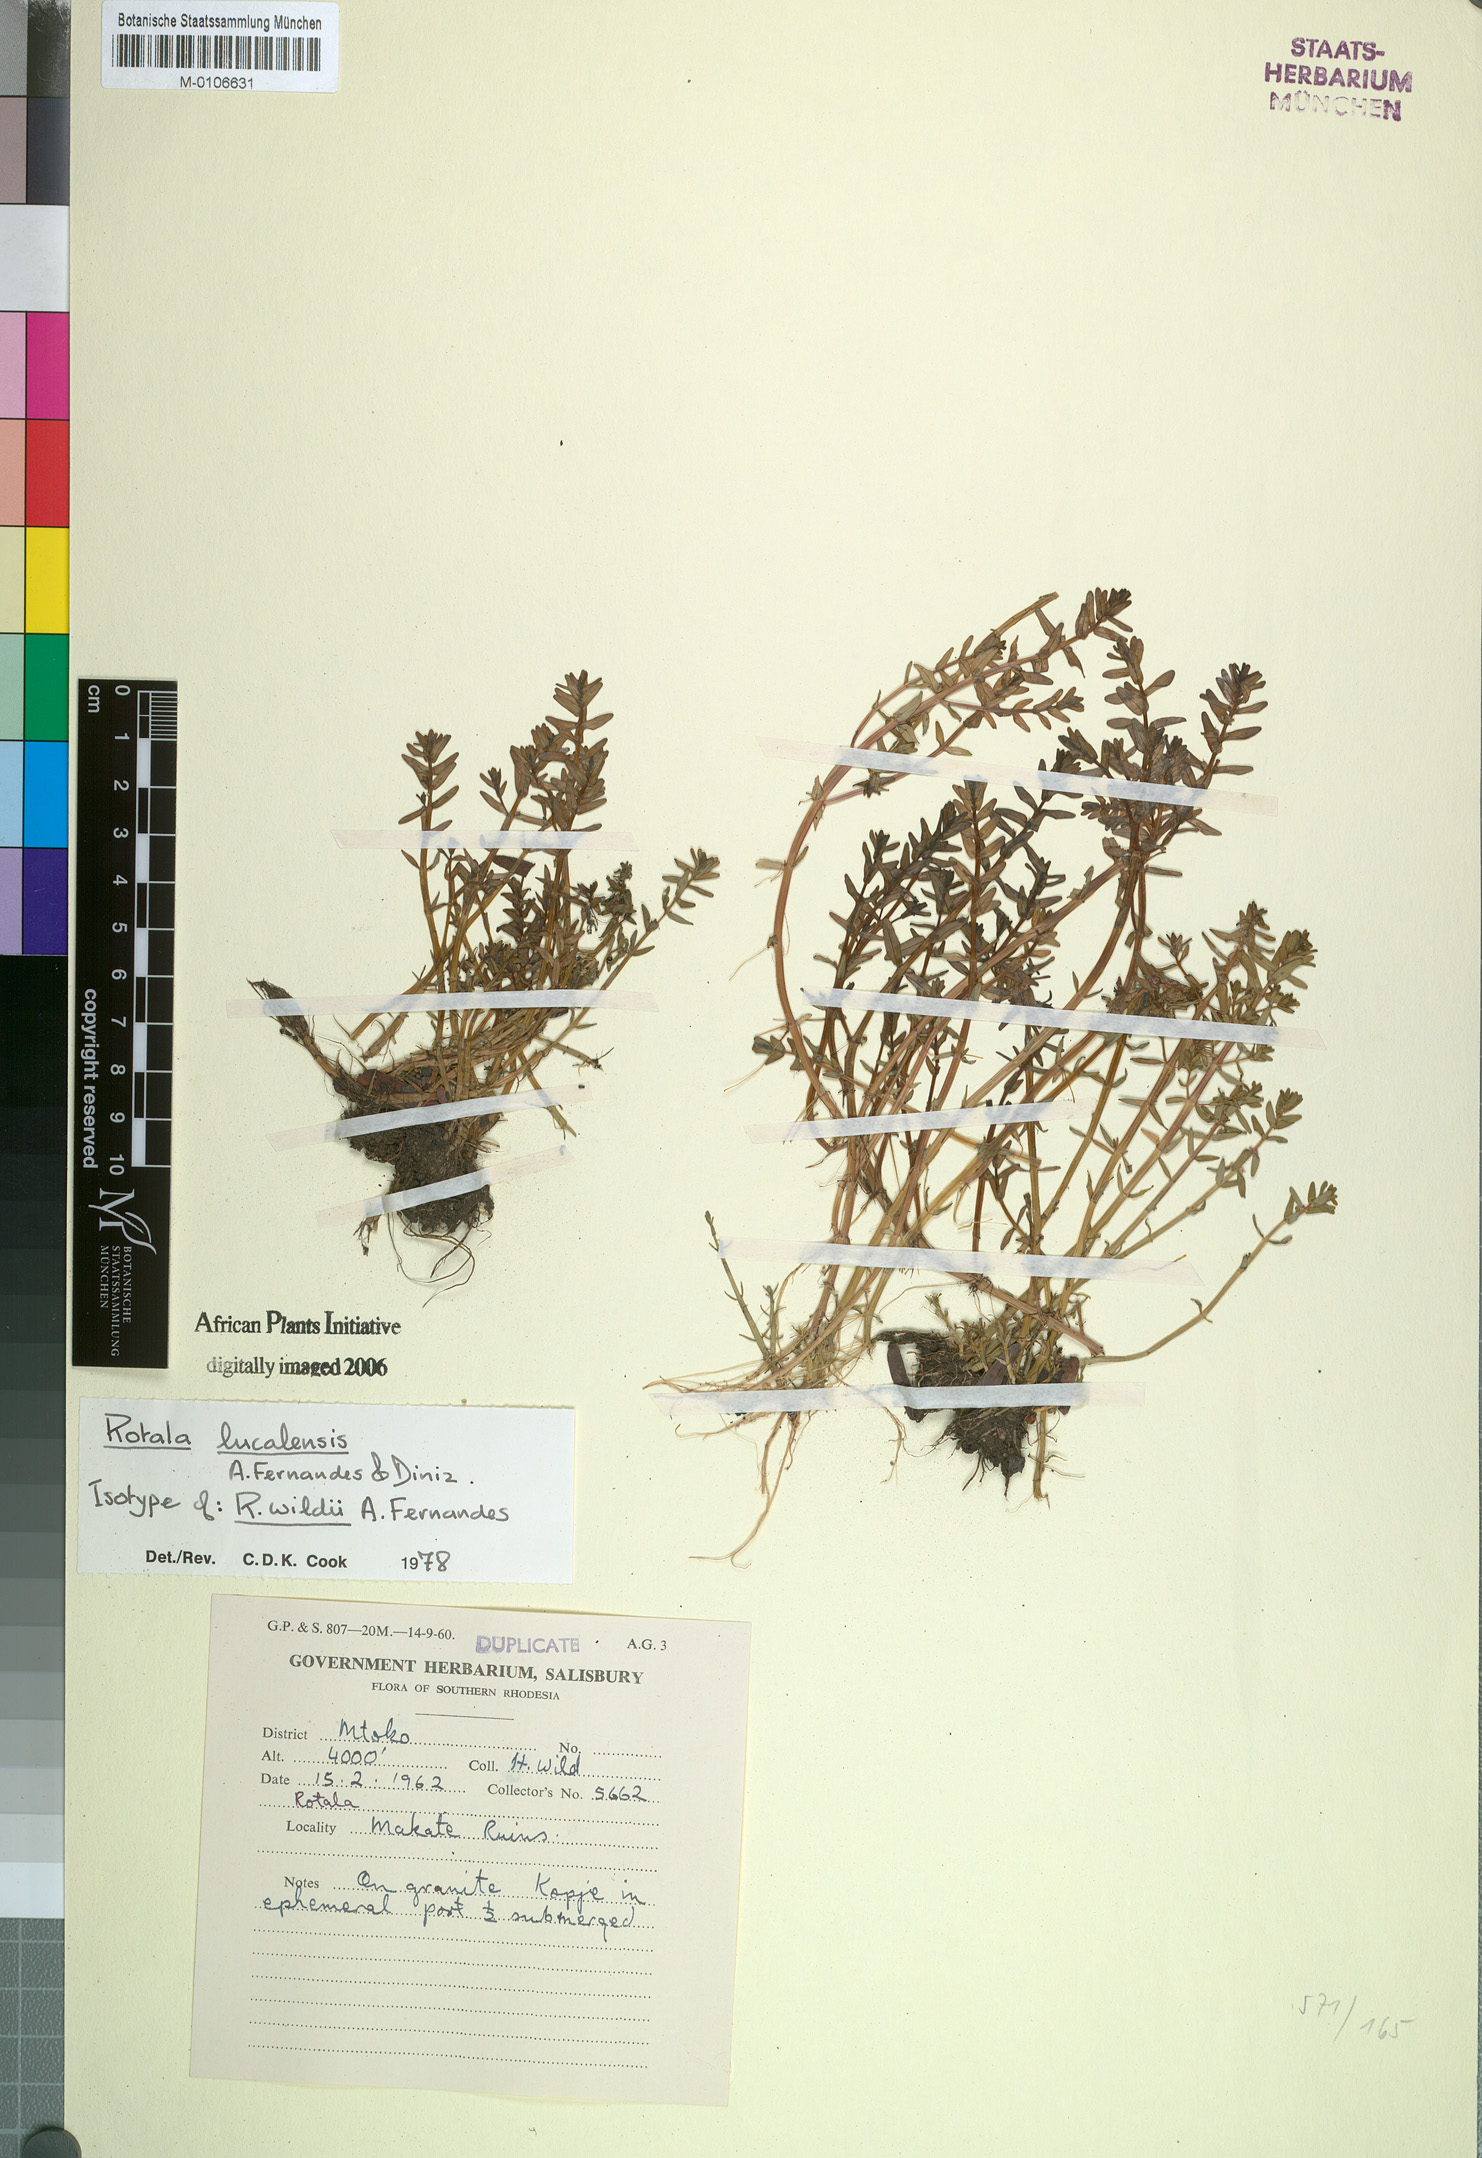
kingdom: Plantae
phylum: Tracheophyta
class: Magnoliopsida
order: Myrtales
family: Lythraceae
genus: Rotala
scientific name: Rotala lucalensis
